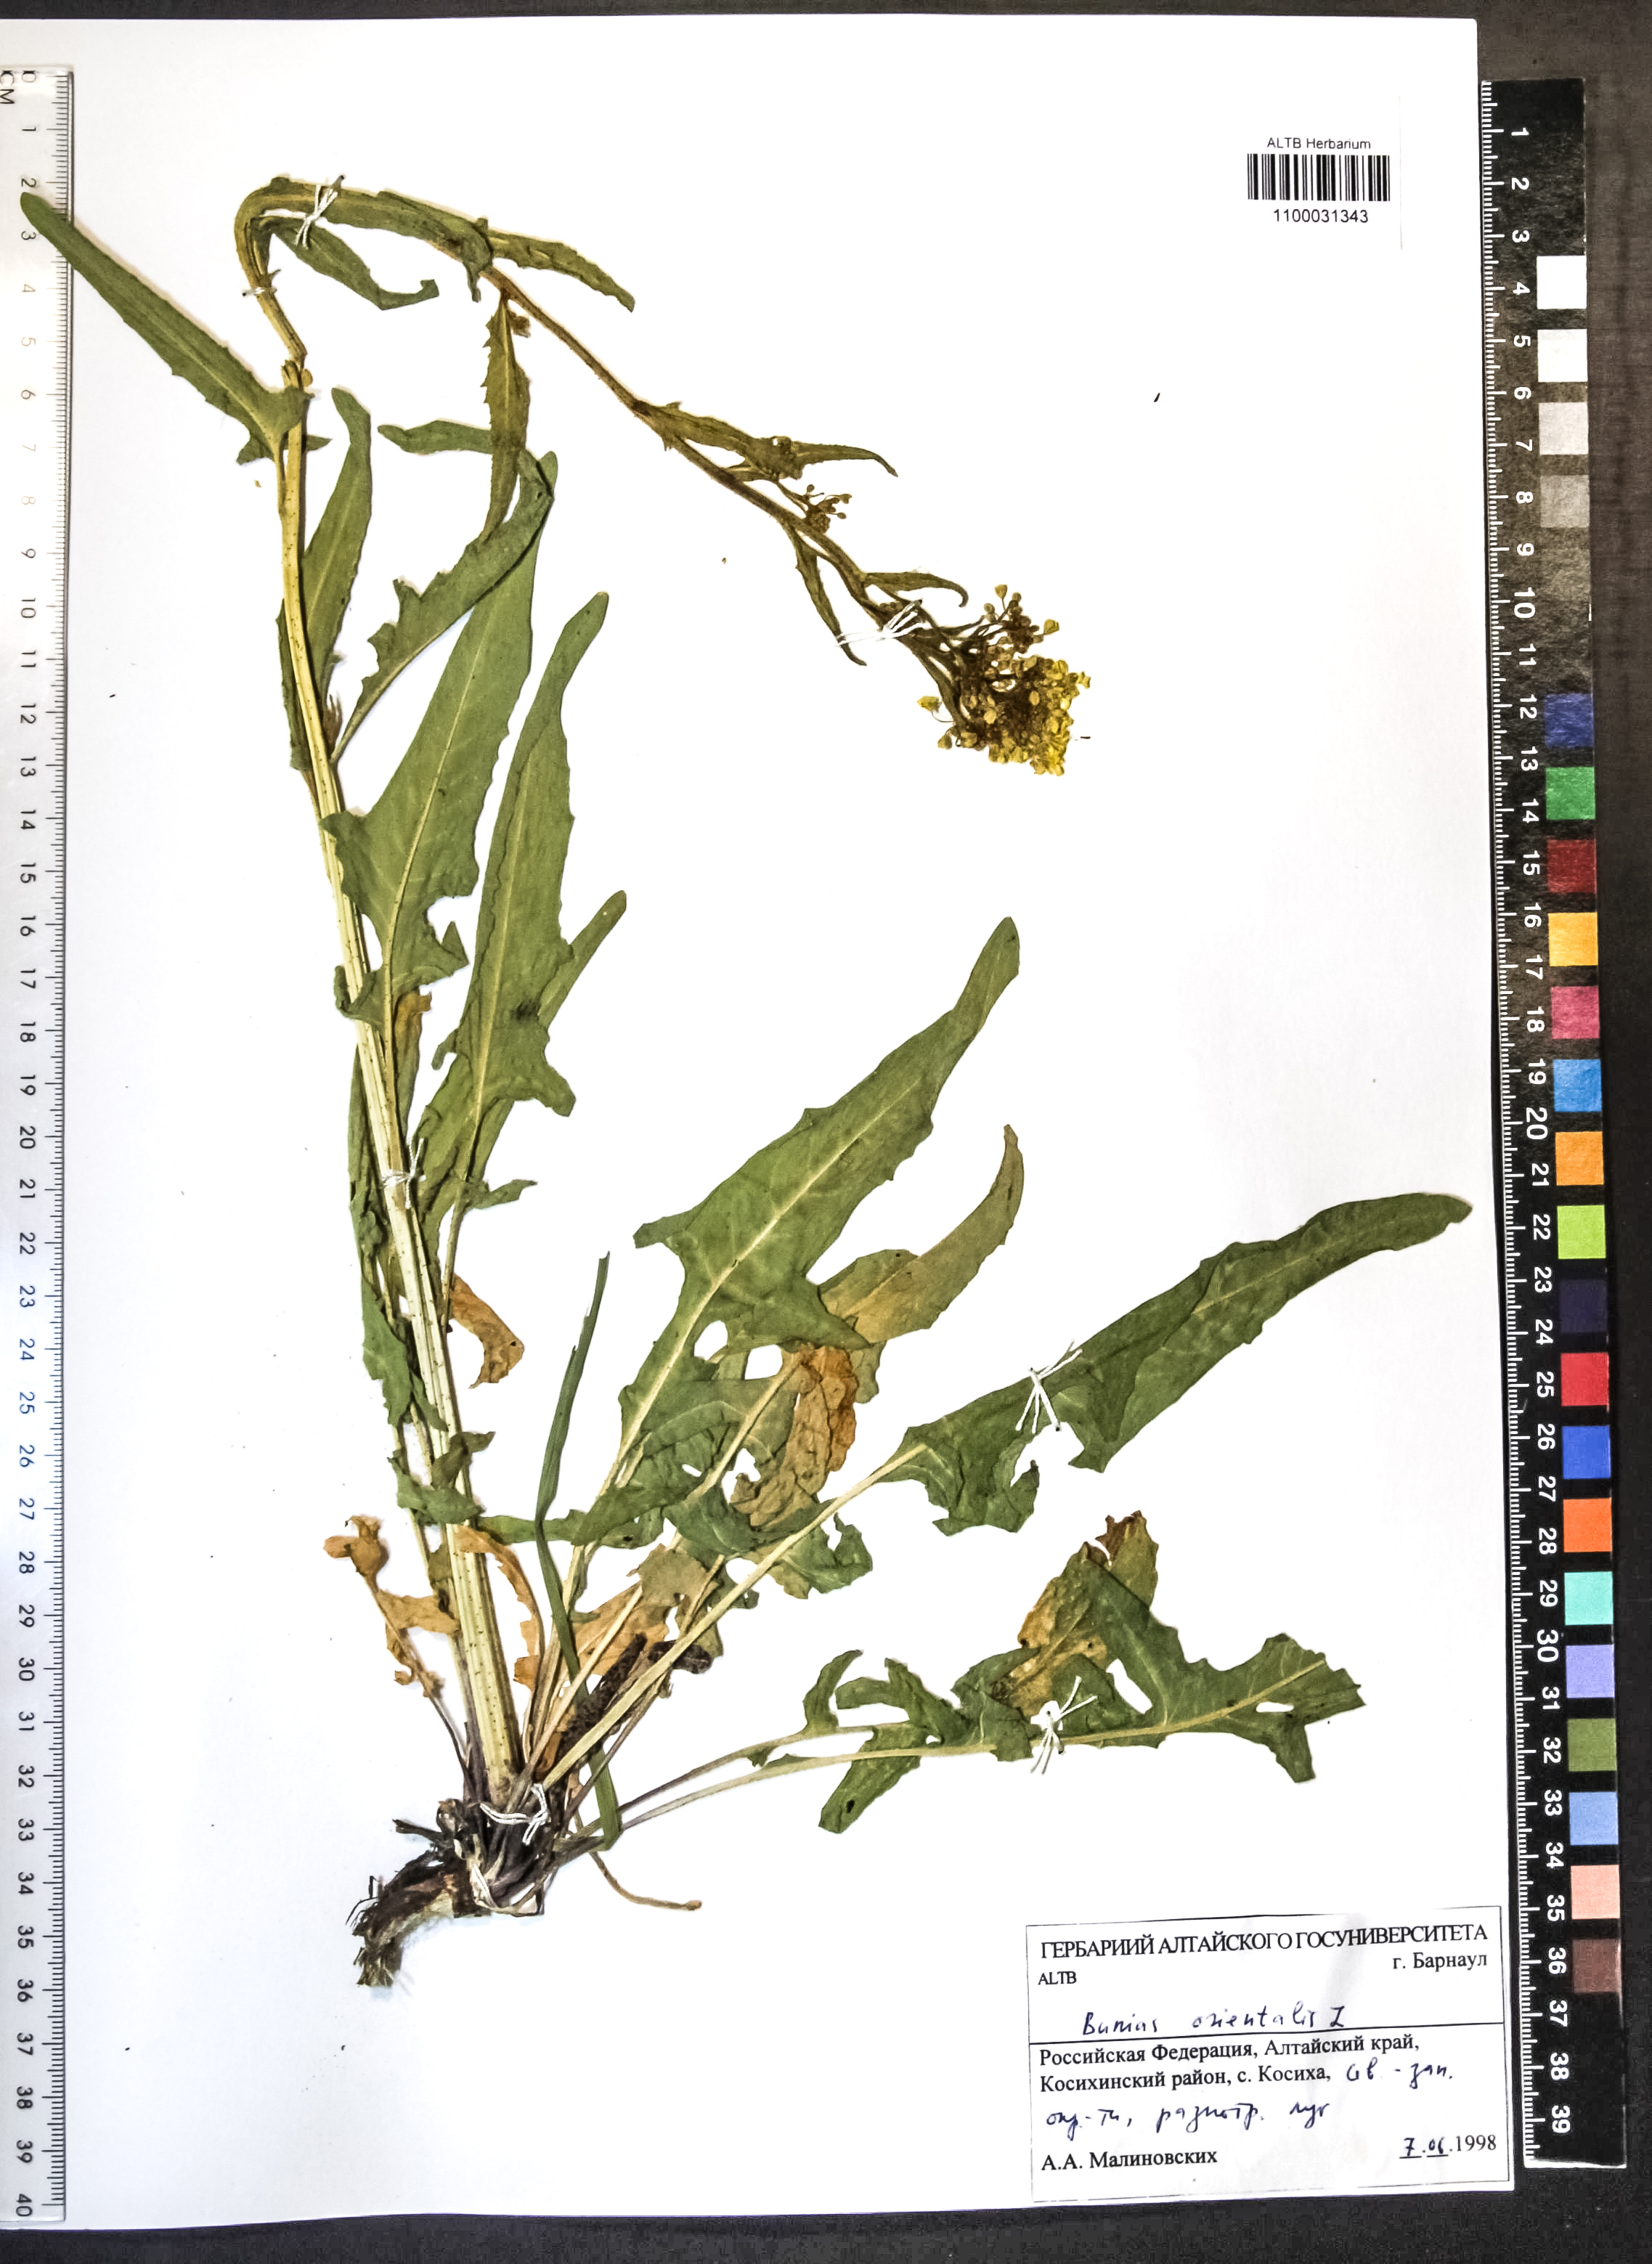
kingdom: Plantae
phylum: Tracheophyta
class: Magnoliopsida
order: Brassicales
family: Brassicaceae
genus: Bunias
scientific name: Bunias orientalis
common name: Warty-cabbage
